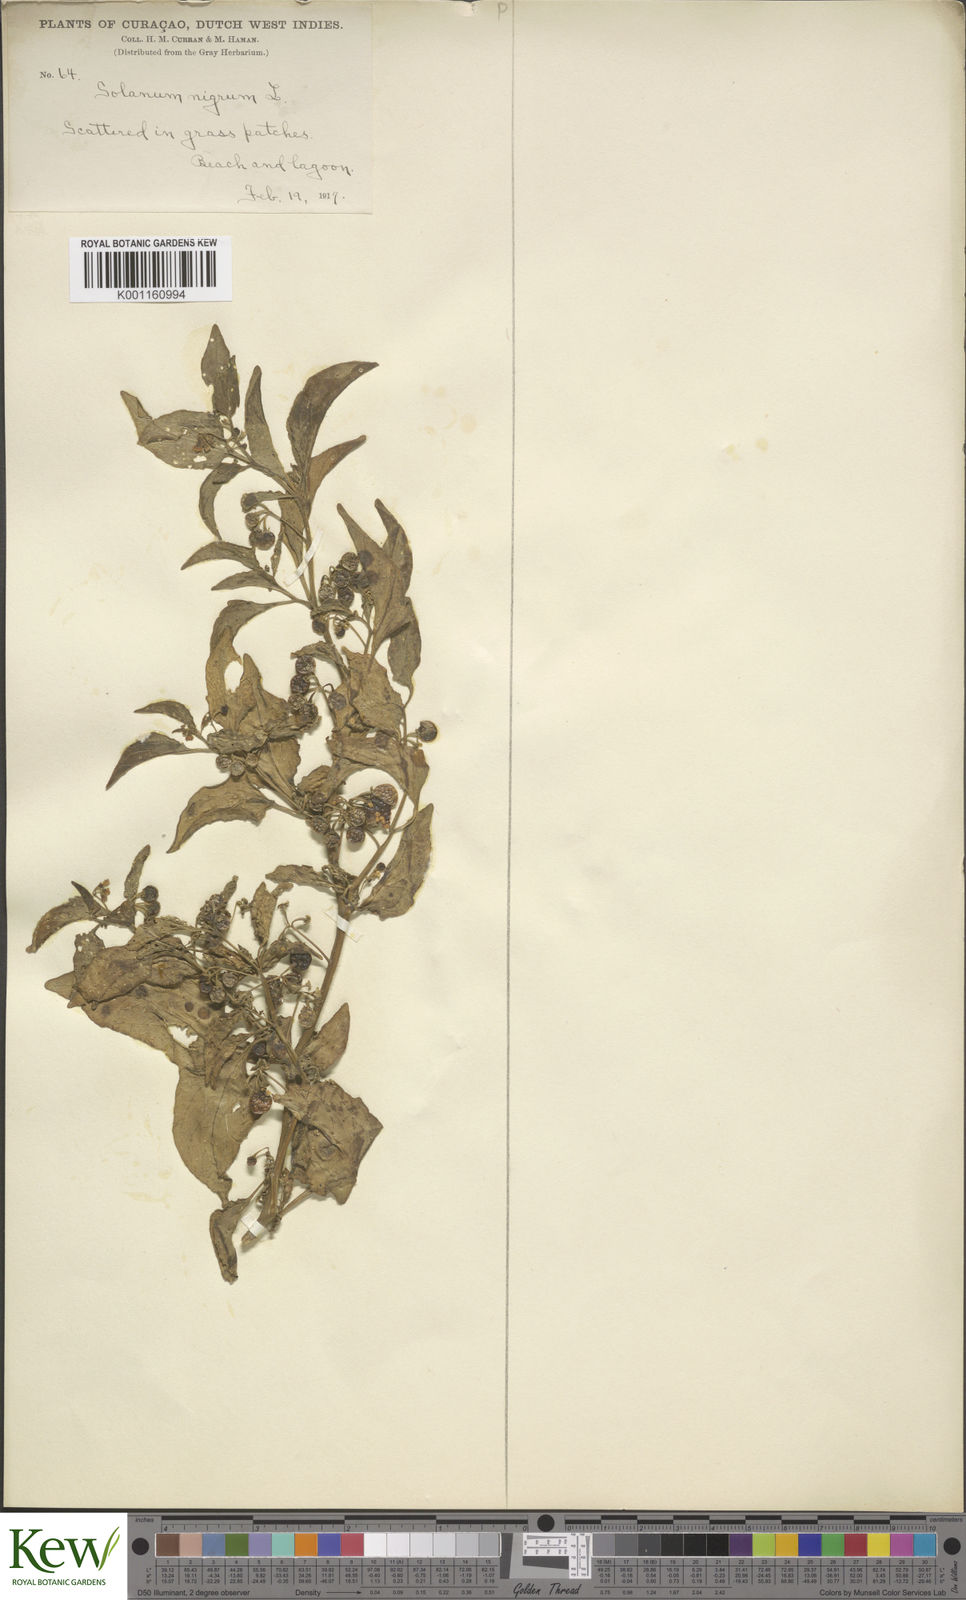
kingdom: Plantae
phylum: Tracheophyta
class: Magnoliopsida
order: Solanales
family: Solanaceae
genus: Solanum
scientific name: Solanum americanum
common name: American black nightshade
